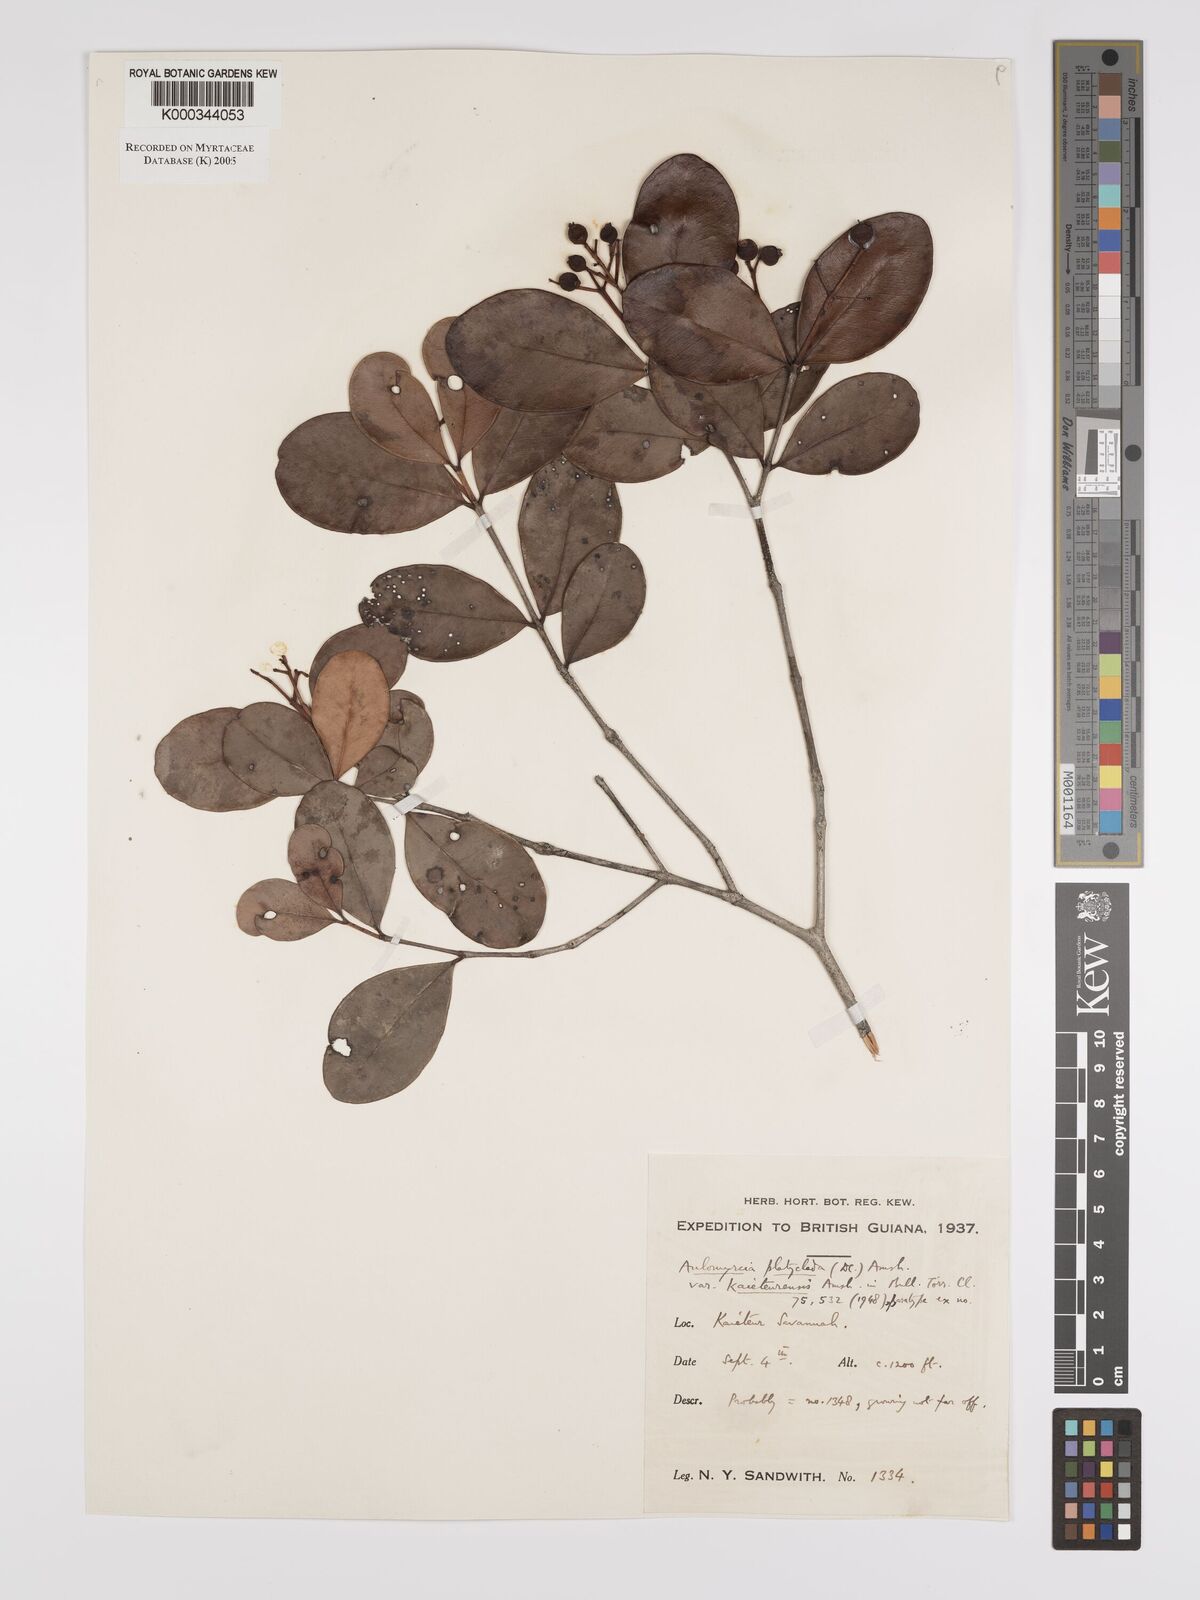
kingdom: Plantae
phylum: Tracheophyta
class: Magnoliopsida
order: Myrtales
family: Myrtaceae
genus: Myrcia
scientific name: Myrcia platyclada
